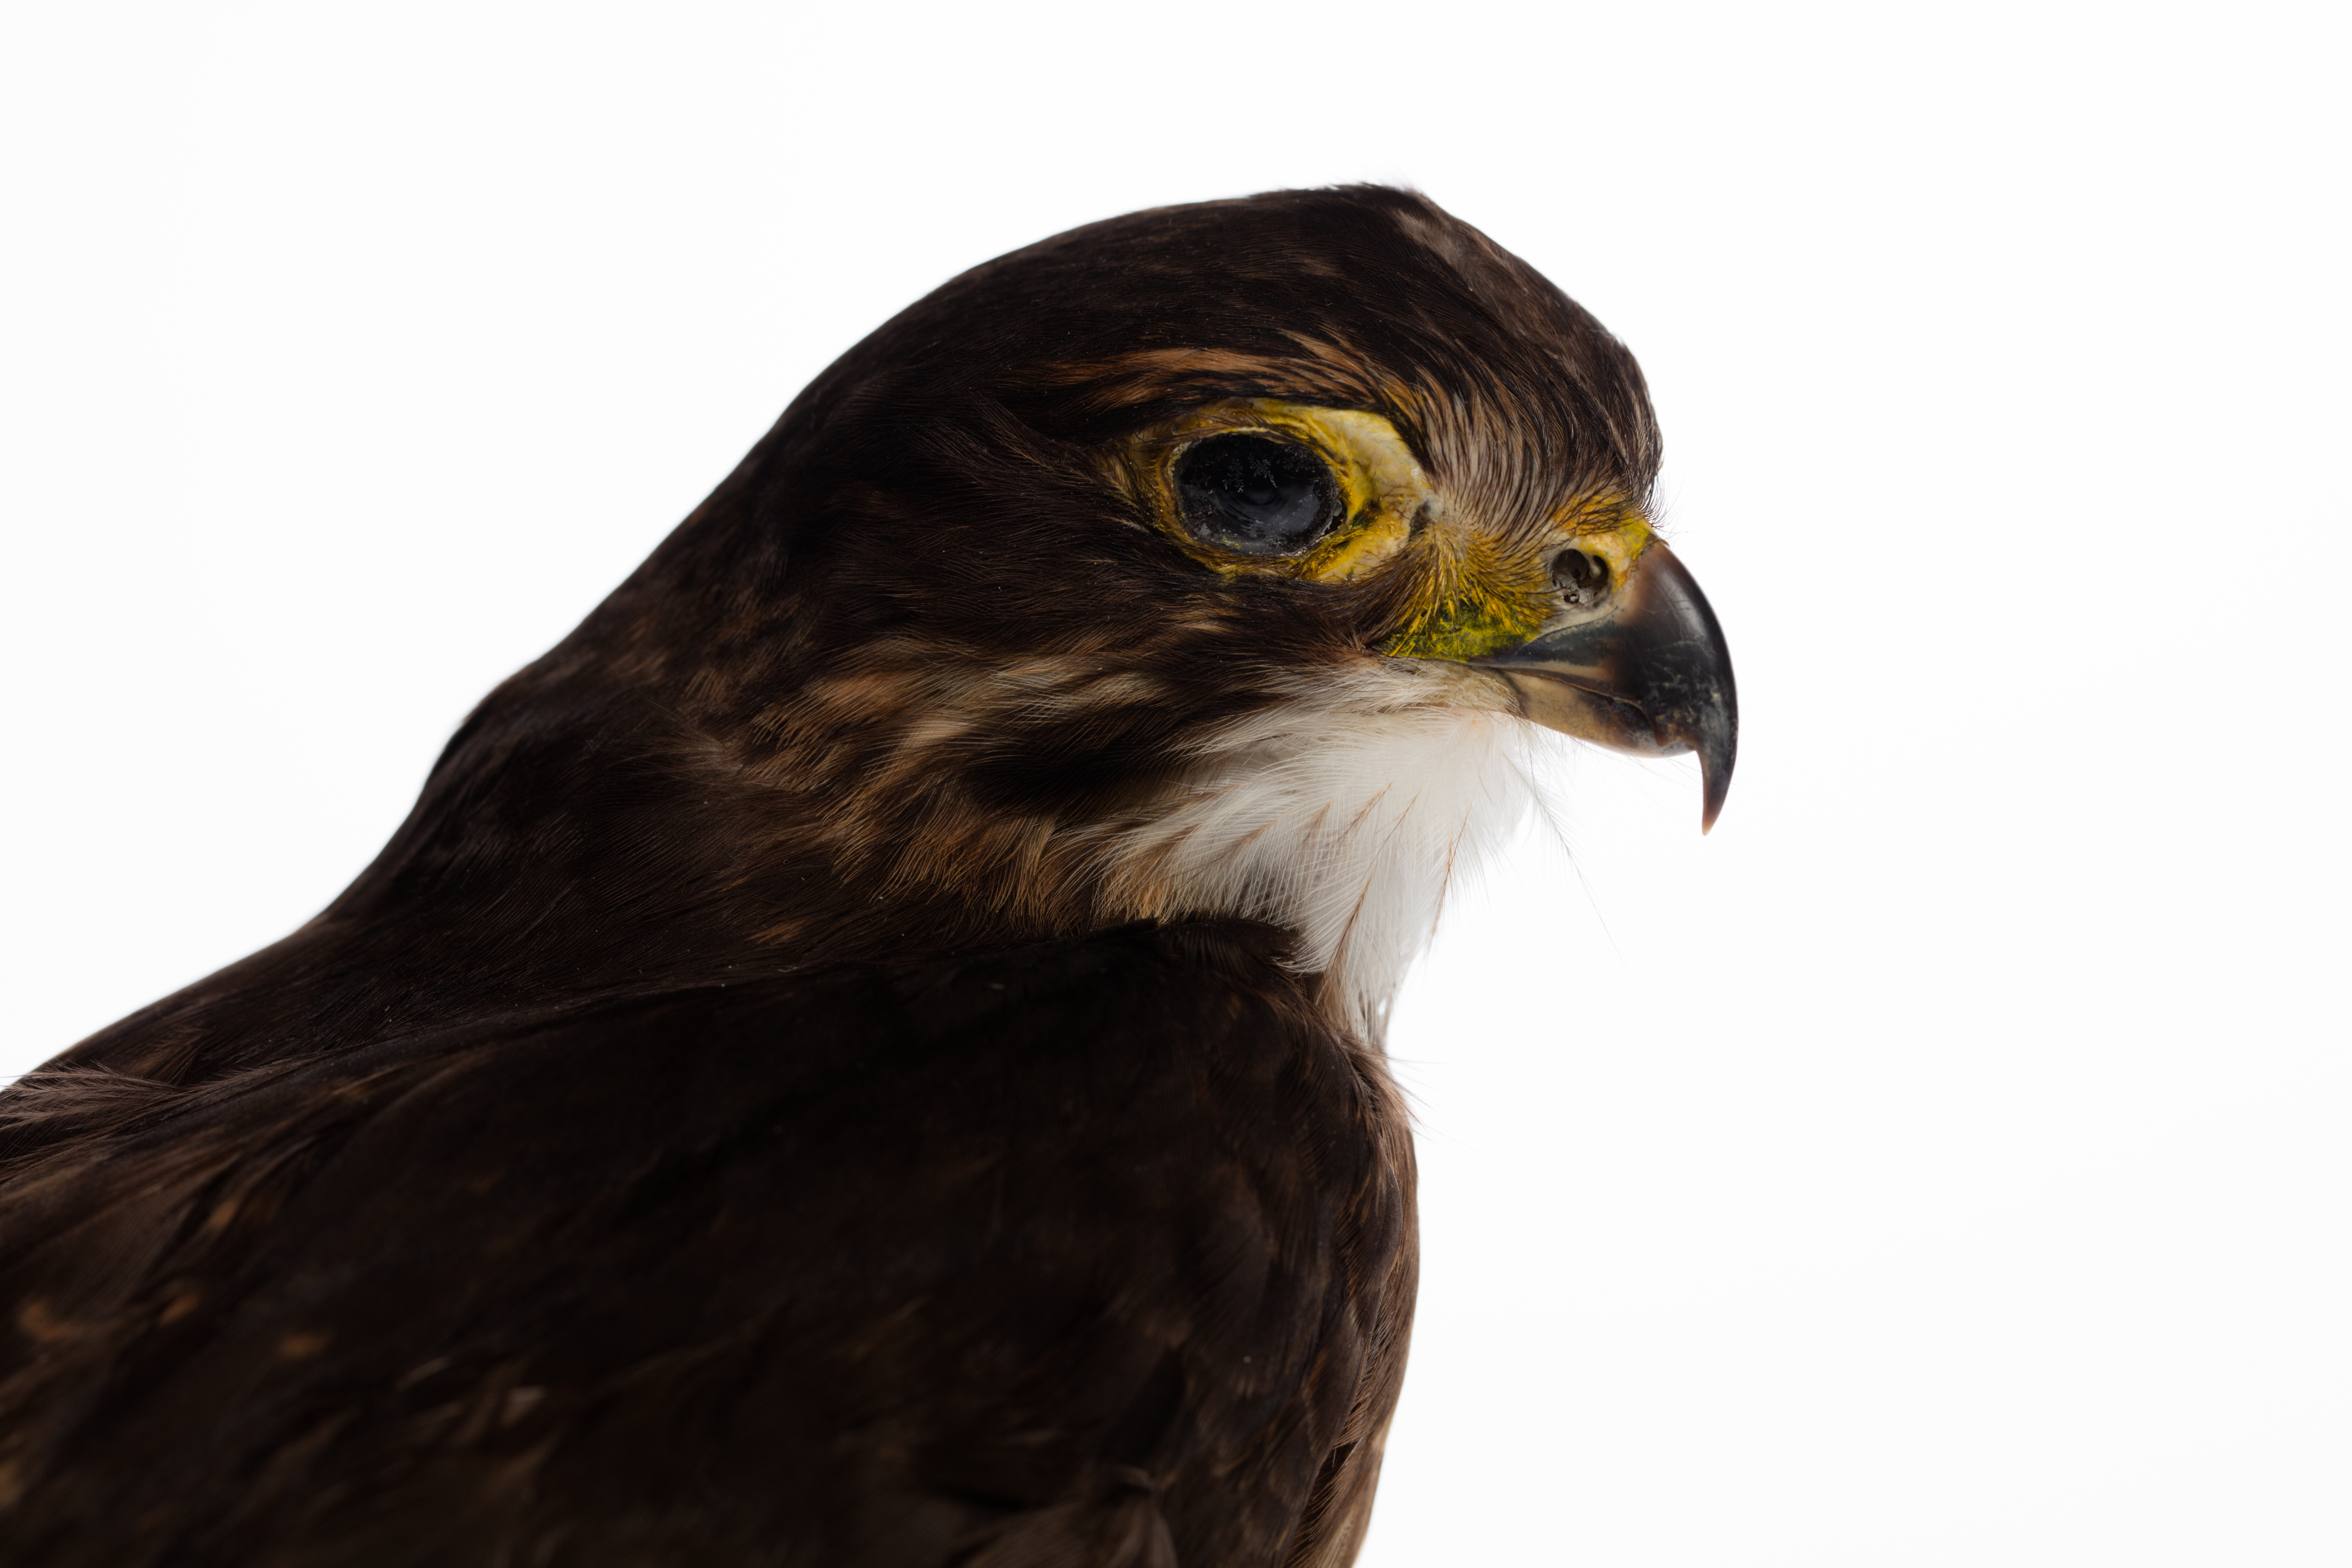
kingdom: Animalia
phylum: Chordata
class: Aves
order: Falconiformes
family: Falconidae
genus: Falco
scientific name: Falco novaeseelandiae
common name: New zealand falcon
